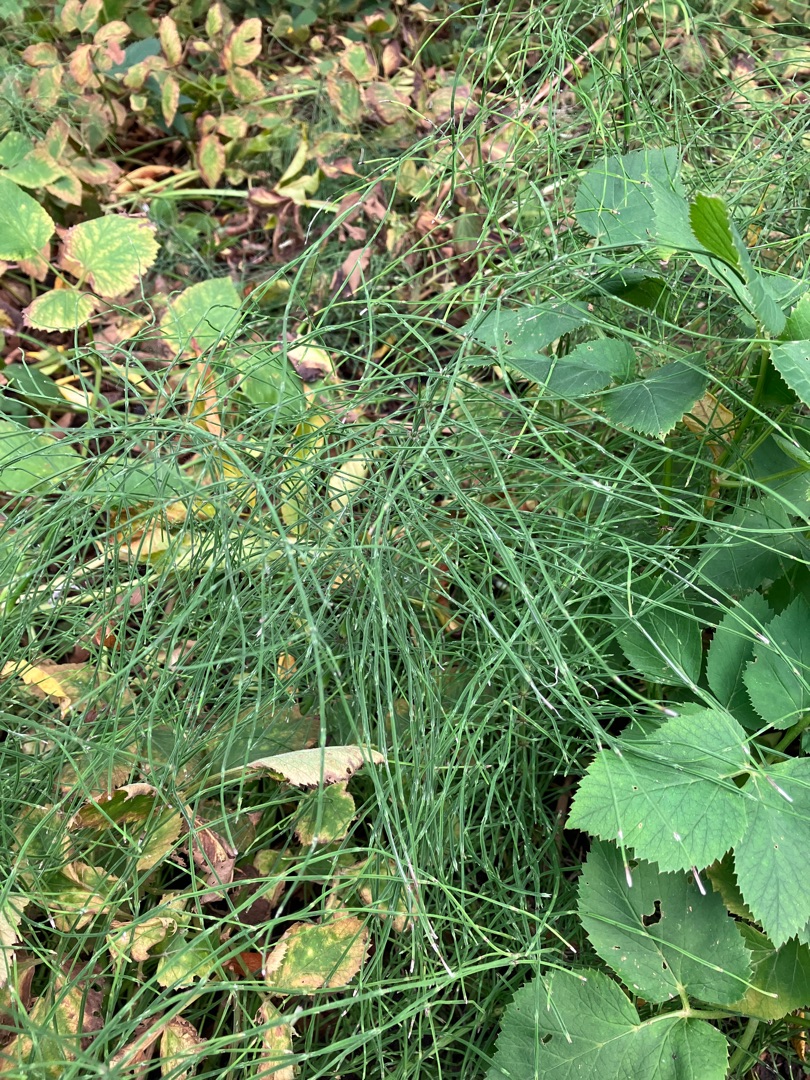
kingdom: Plantae
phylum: Tracheophyta
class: Polypodiopsida
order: Equisetales
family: Equisetaceae
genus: Equisetum
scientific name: Equisetum arvense
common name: Ager-padderok
